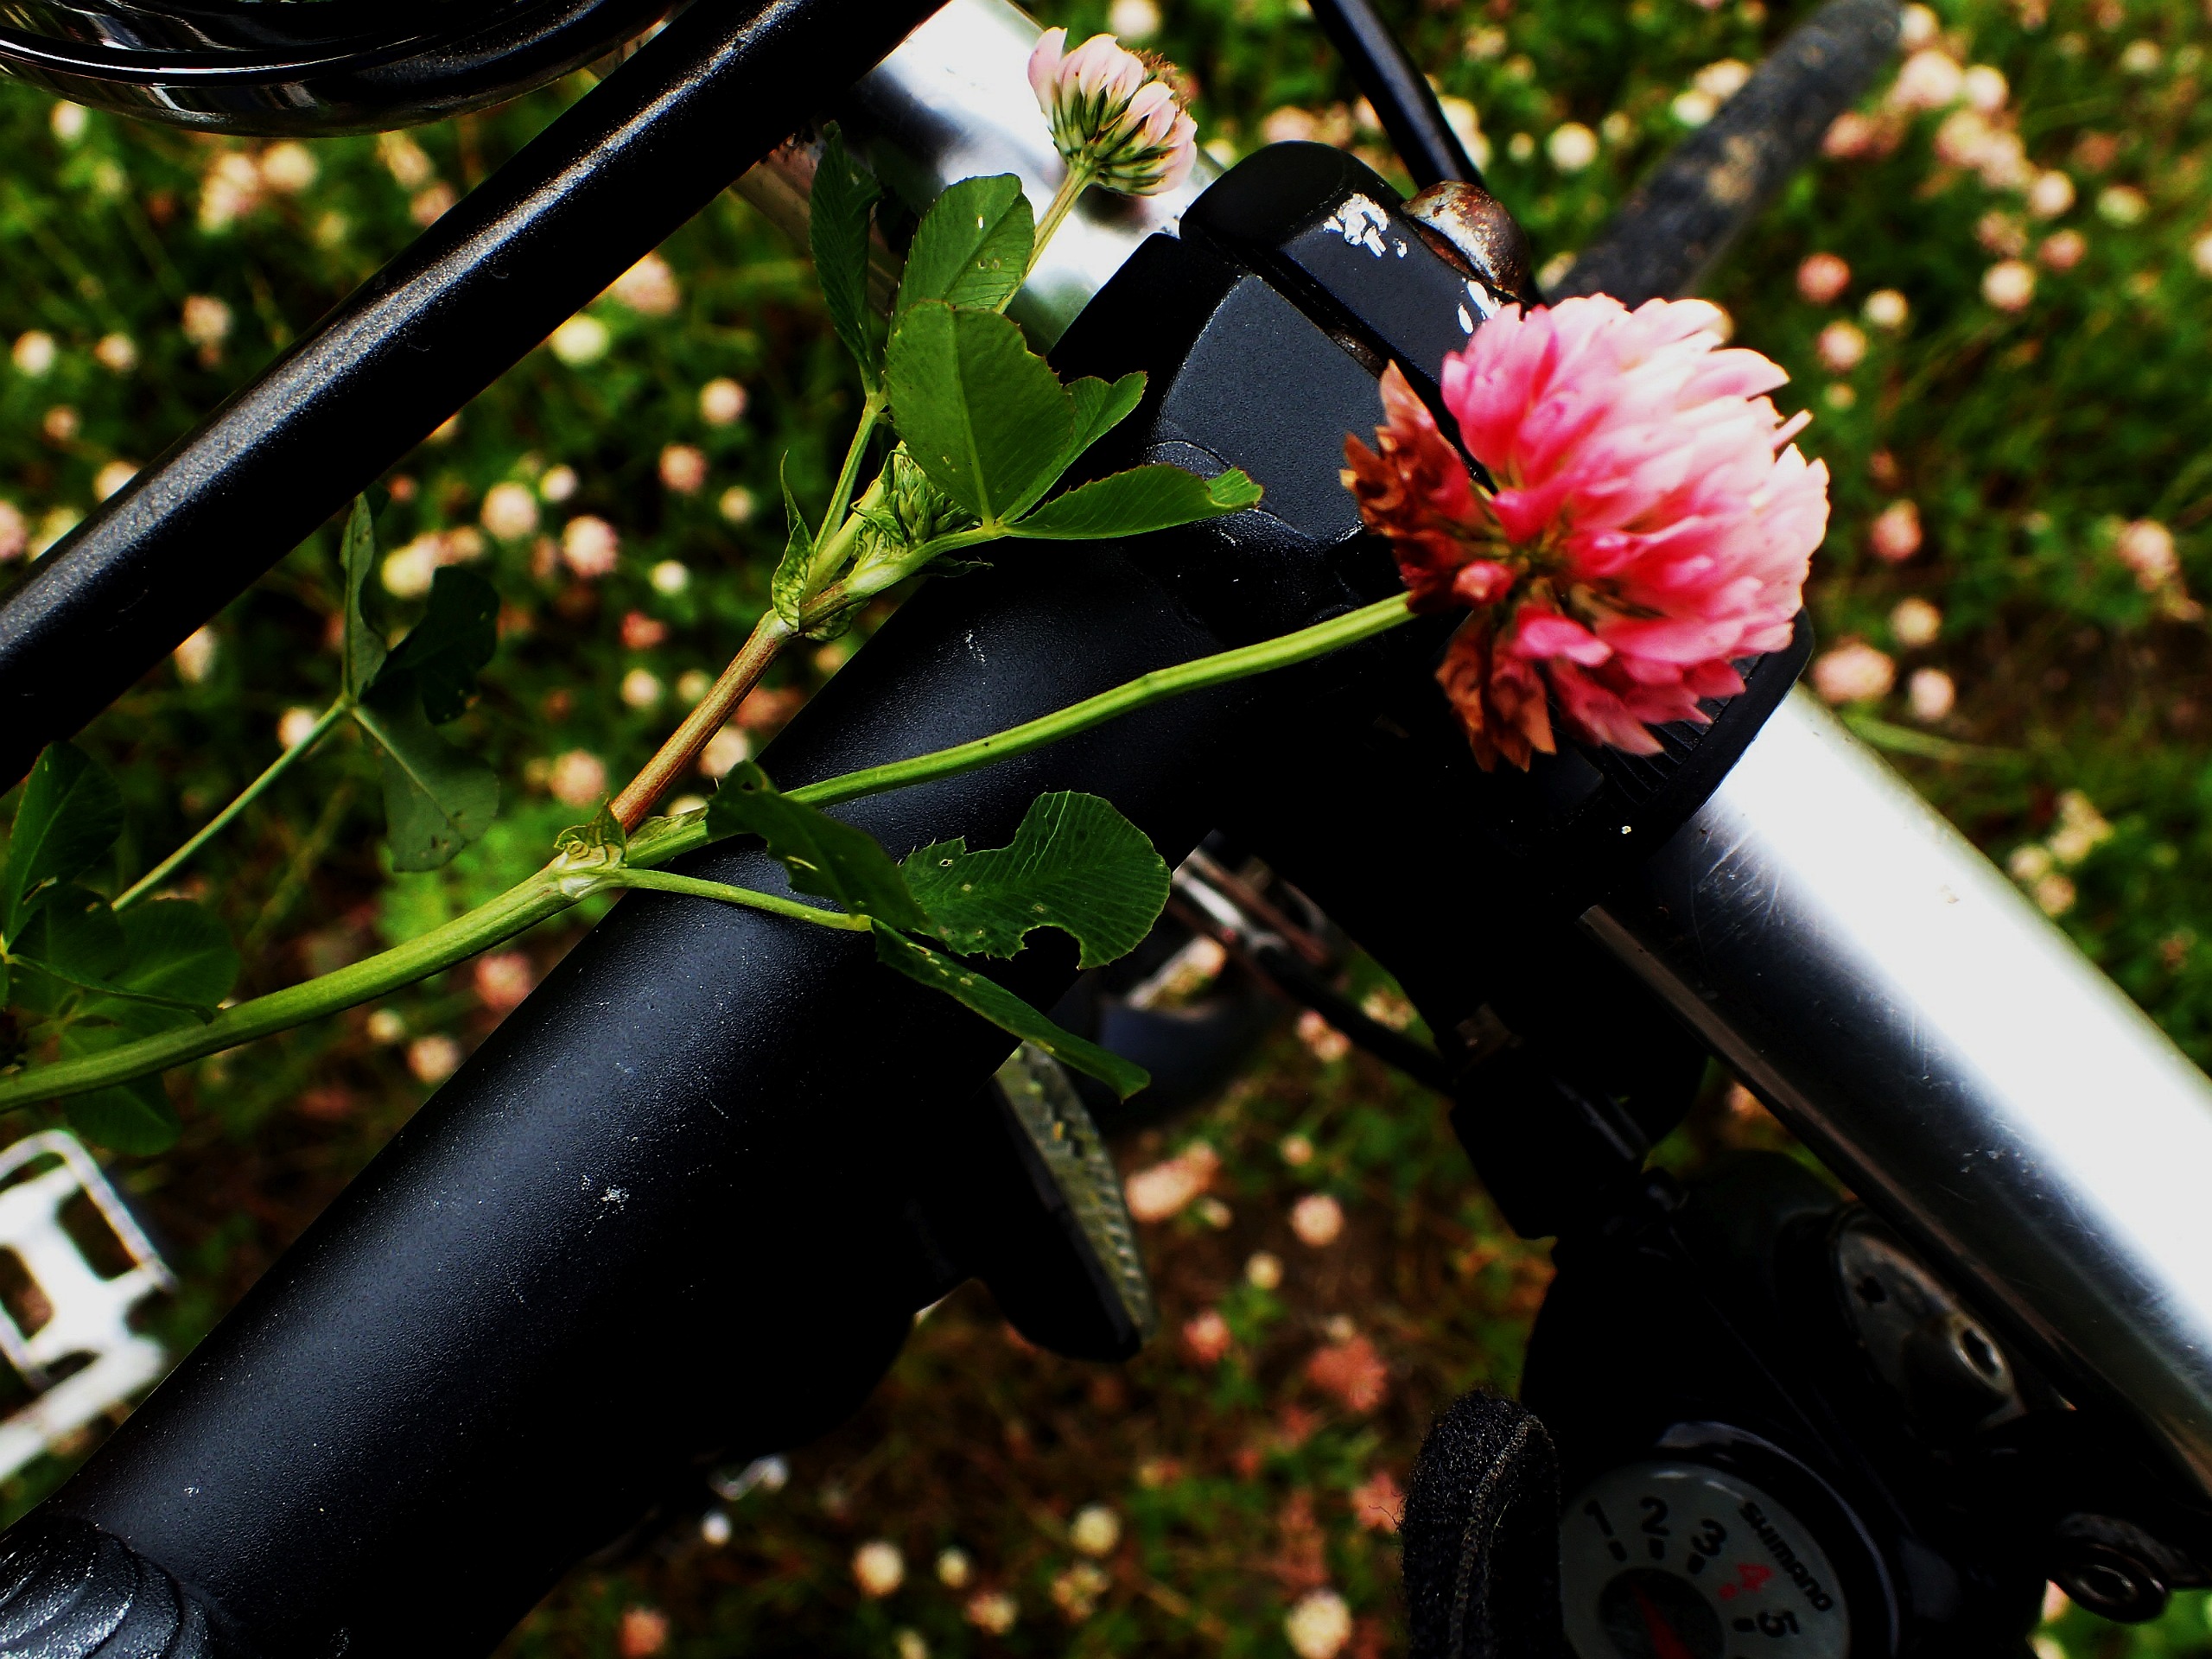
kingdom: Plantae
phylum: Tracheophyta
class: Magnoliopsida
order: Fabales
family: Fabaceae
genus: Trifolium
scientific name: Trifolium hybridum
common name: Alsike-kløver
